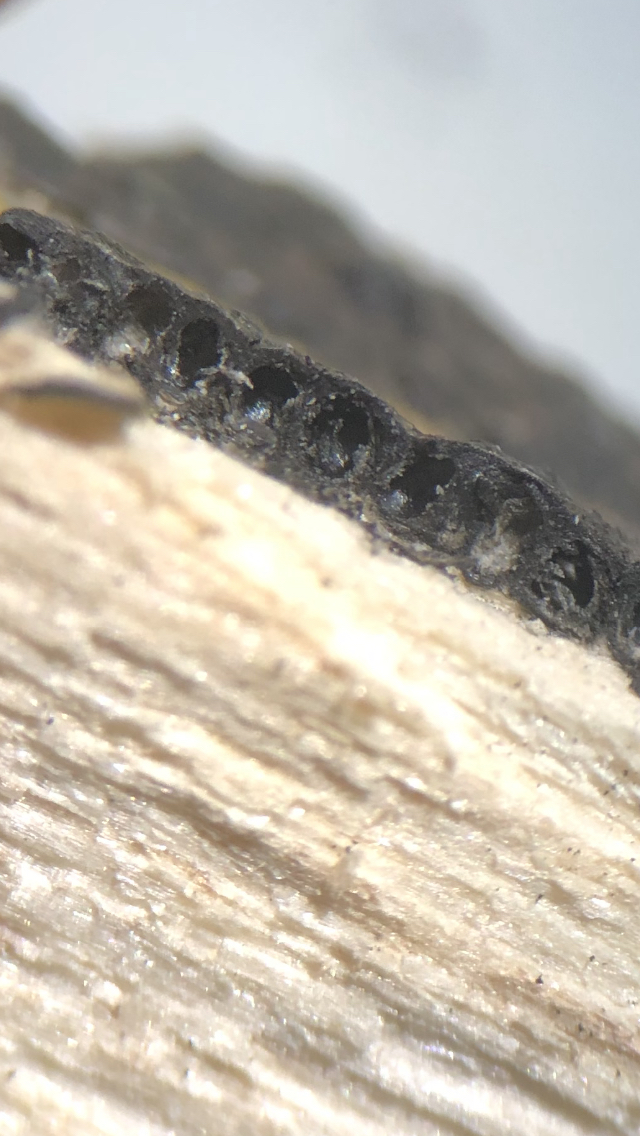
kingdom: Fungi
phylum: Ascomycota
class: Sordariomycetes
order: Xylariales
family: Xylariaceae
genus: Nemania
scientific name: Nemania serpens
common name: almindelig kuldyne
